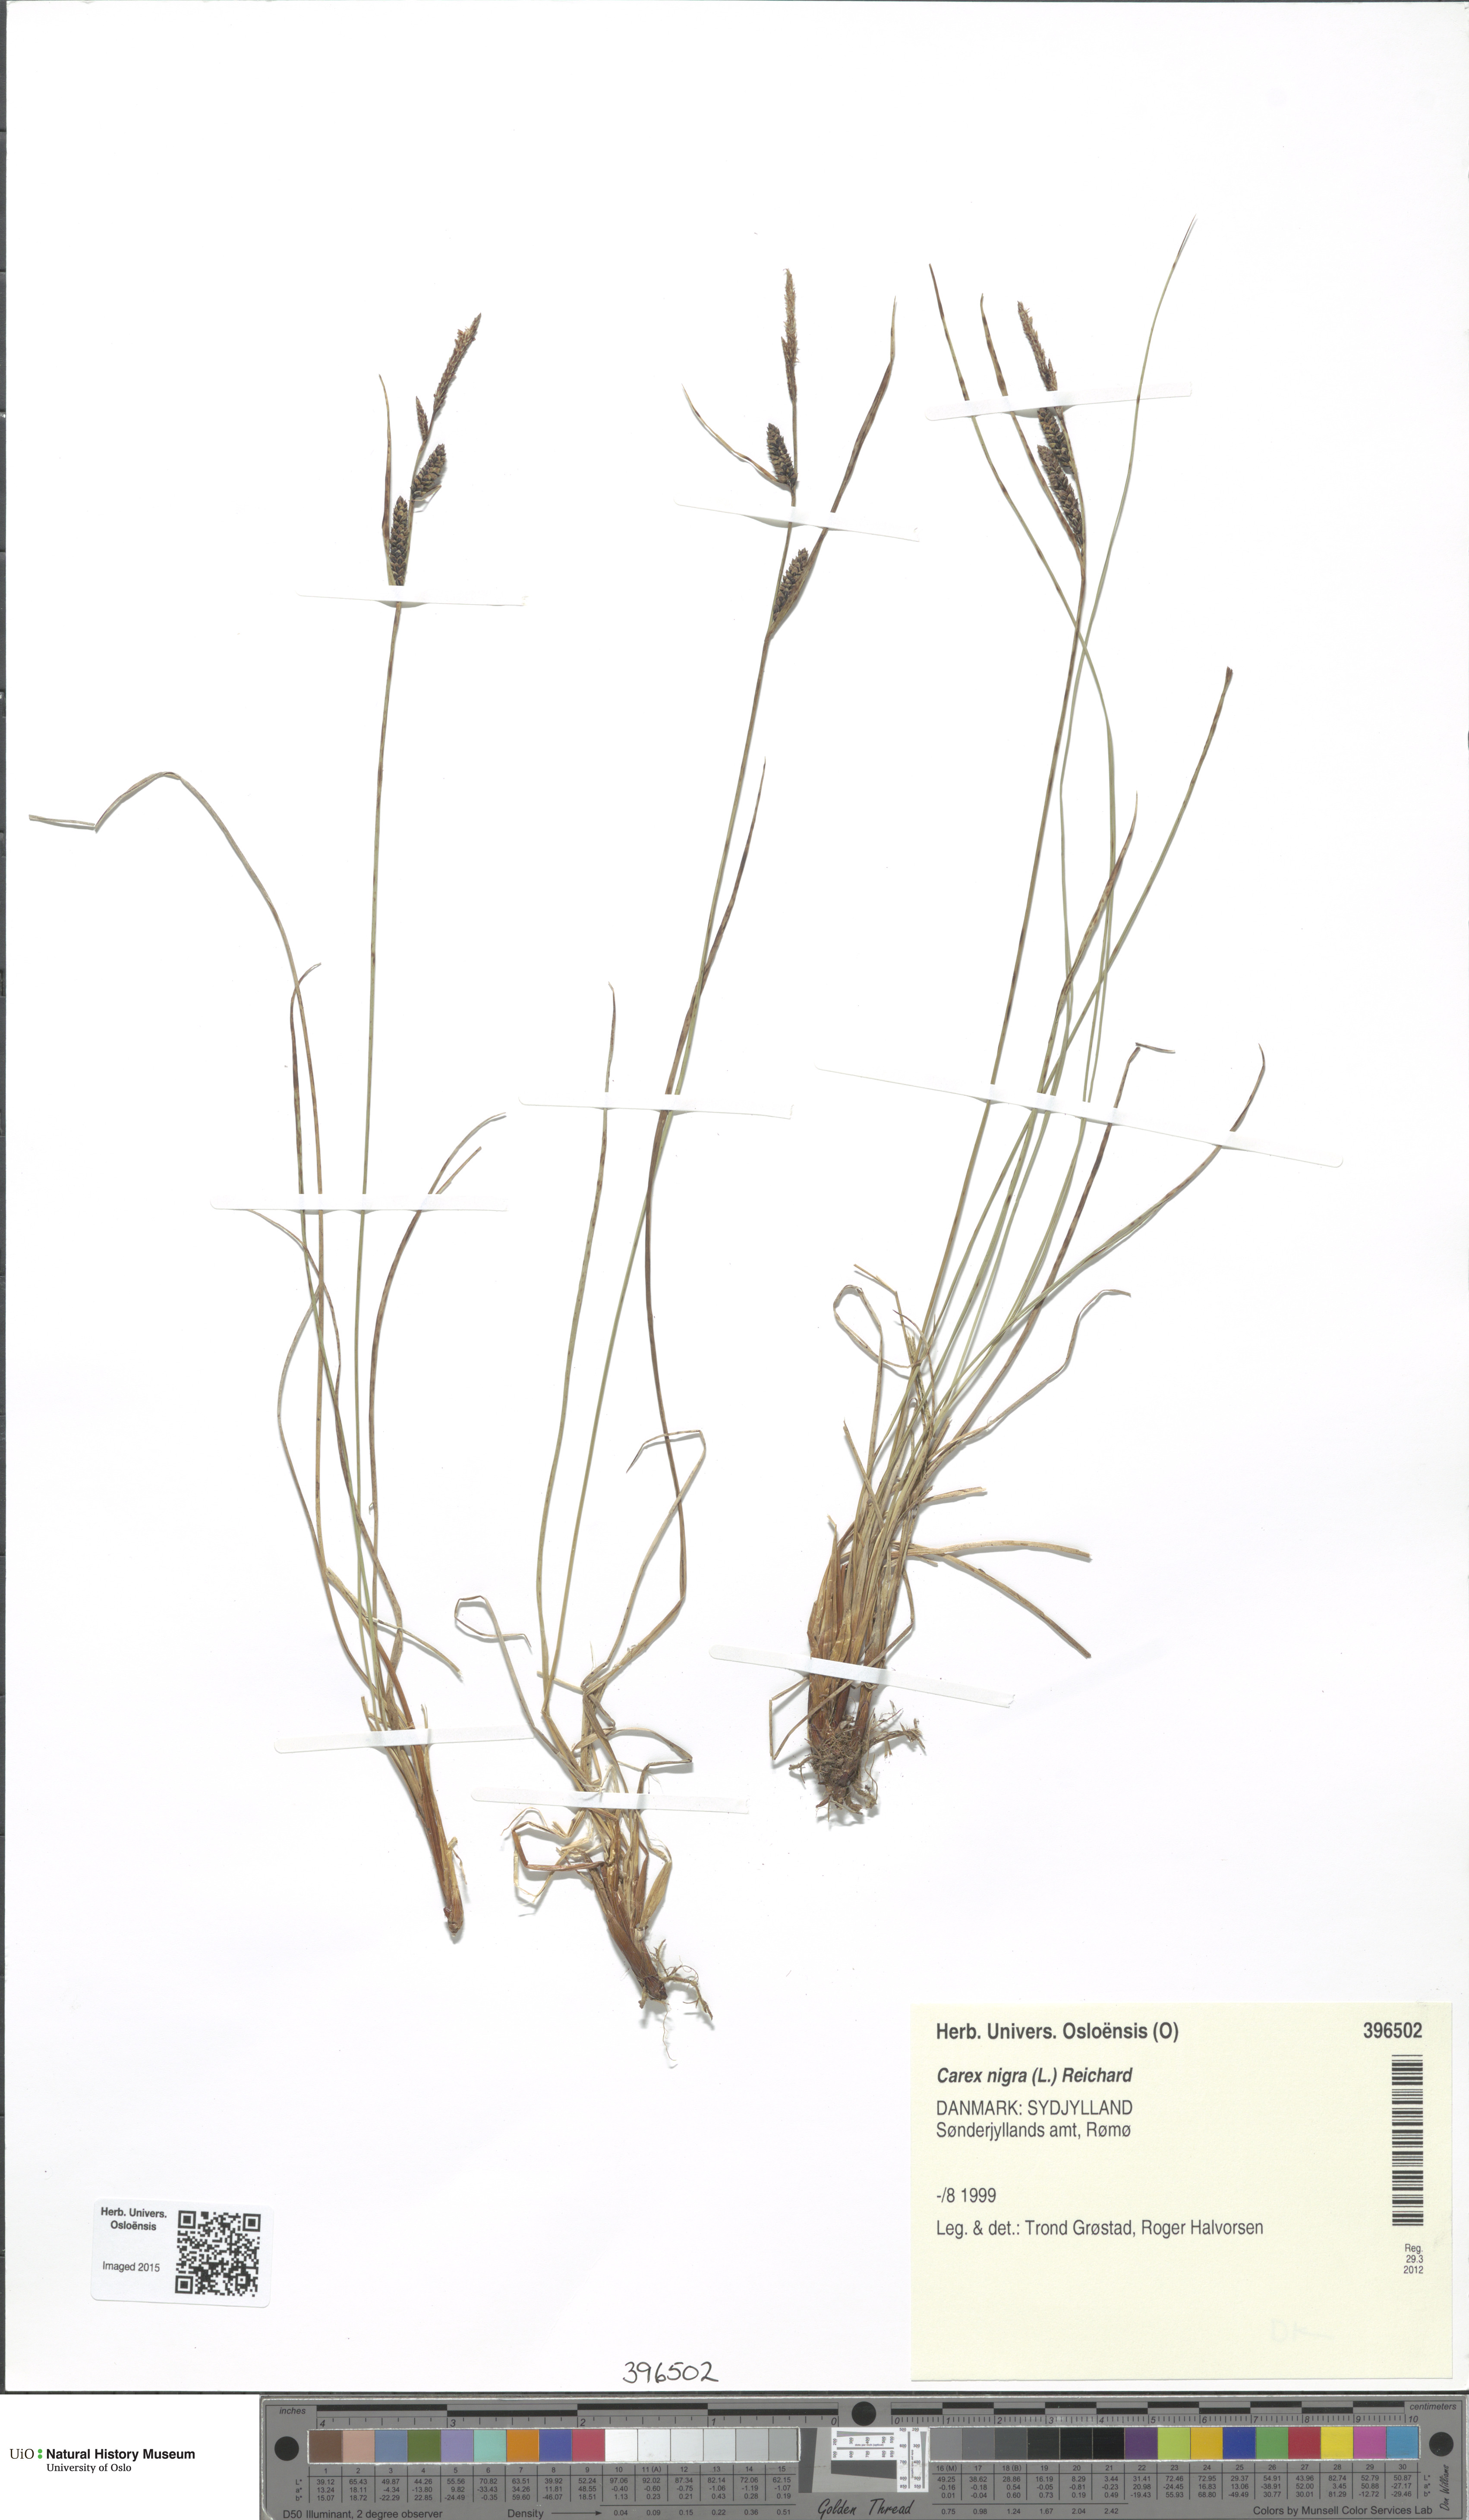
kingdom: Plantae
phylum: Tracheophyta
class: Liliopsida
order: Poales
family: Cyperaceae
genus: Carex
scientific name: Carex nigra
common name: Common sedge
